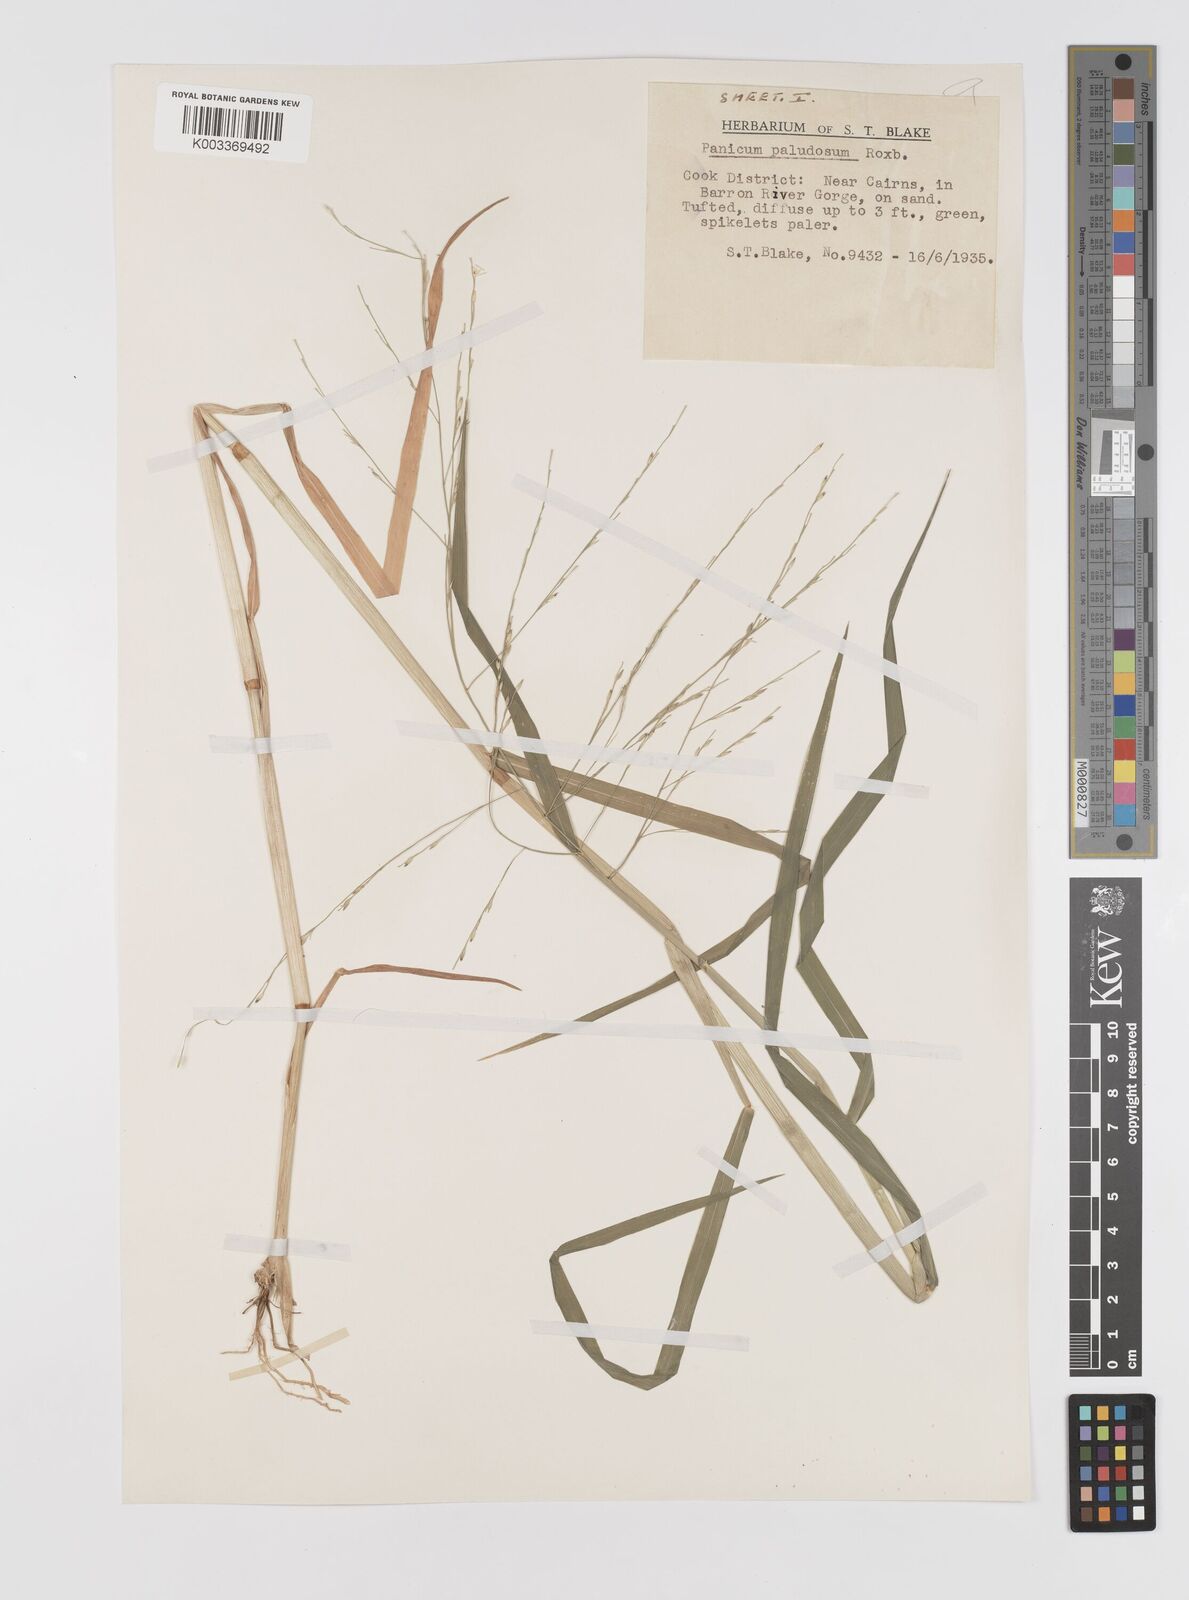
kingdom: Plantae
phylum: Tracheophyta
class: Liliopsida
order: Poales
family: Poaceae
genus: Louisiella
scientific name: Louisiella paludosa
